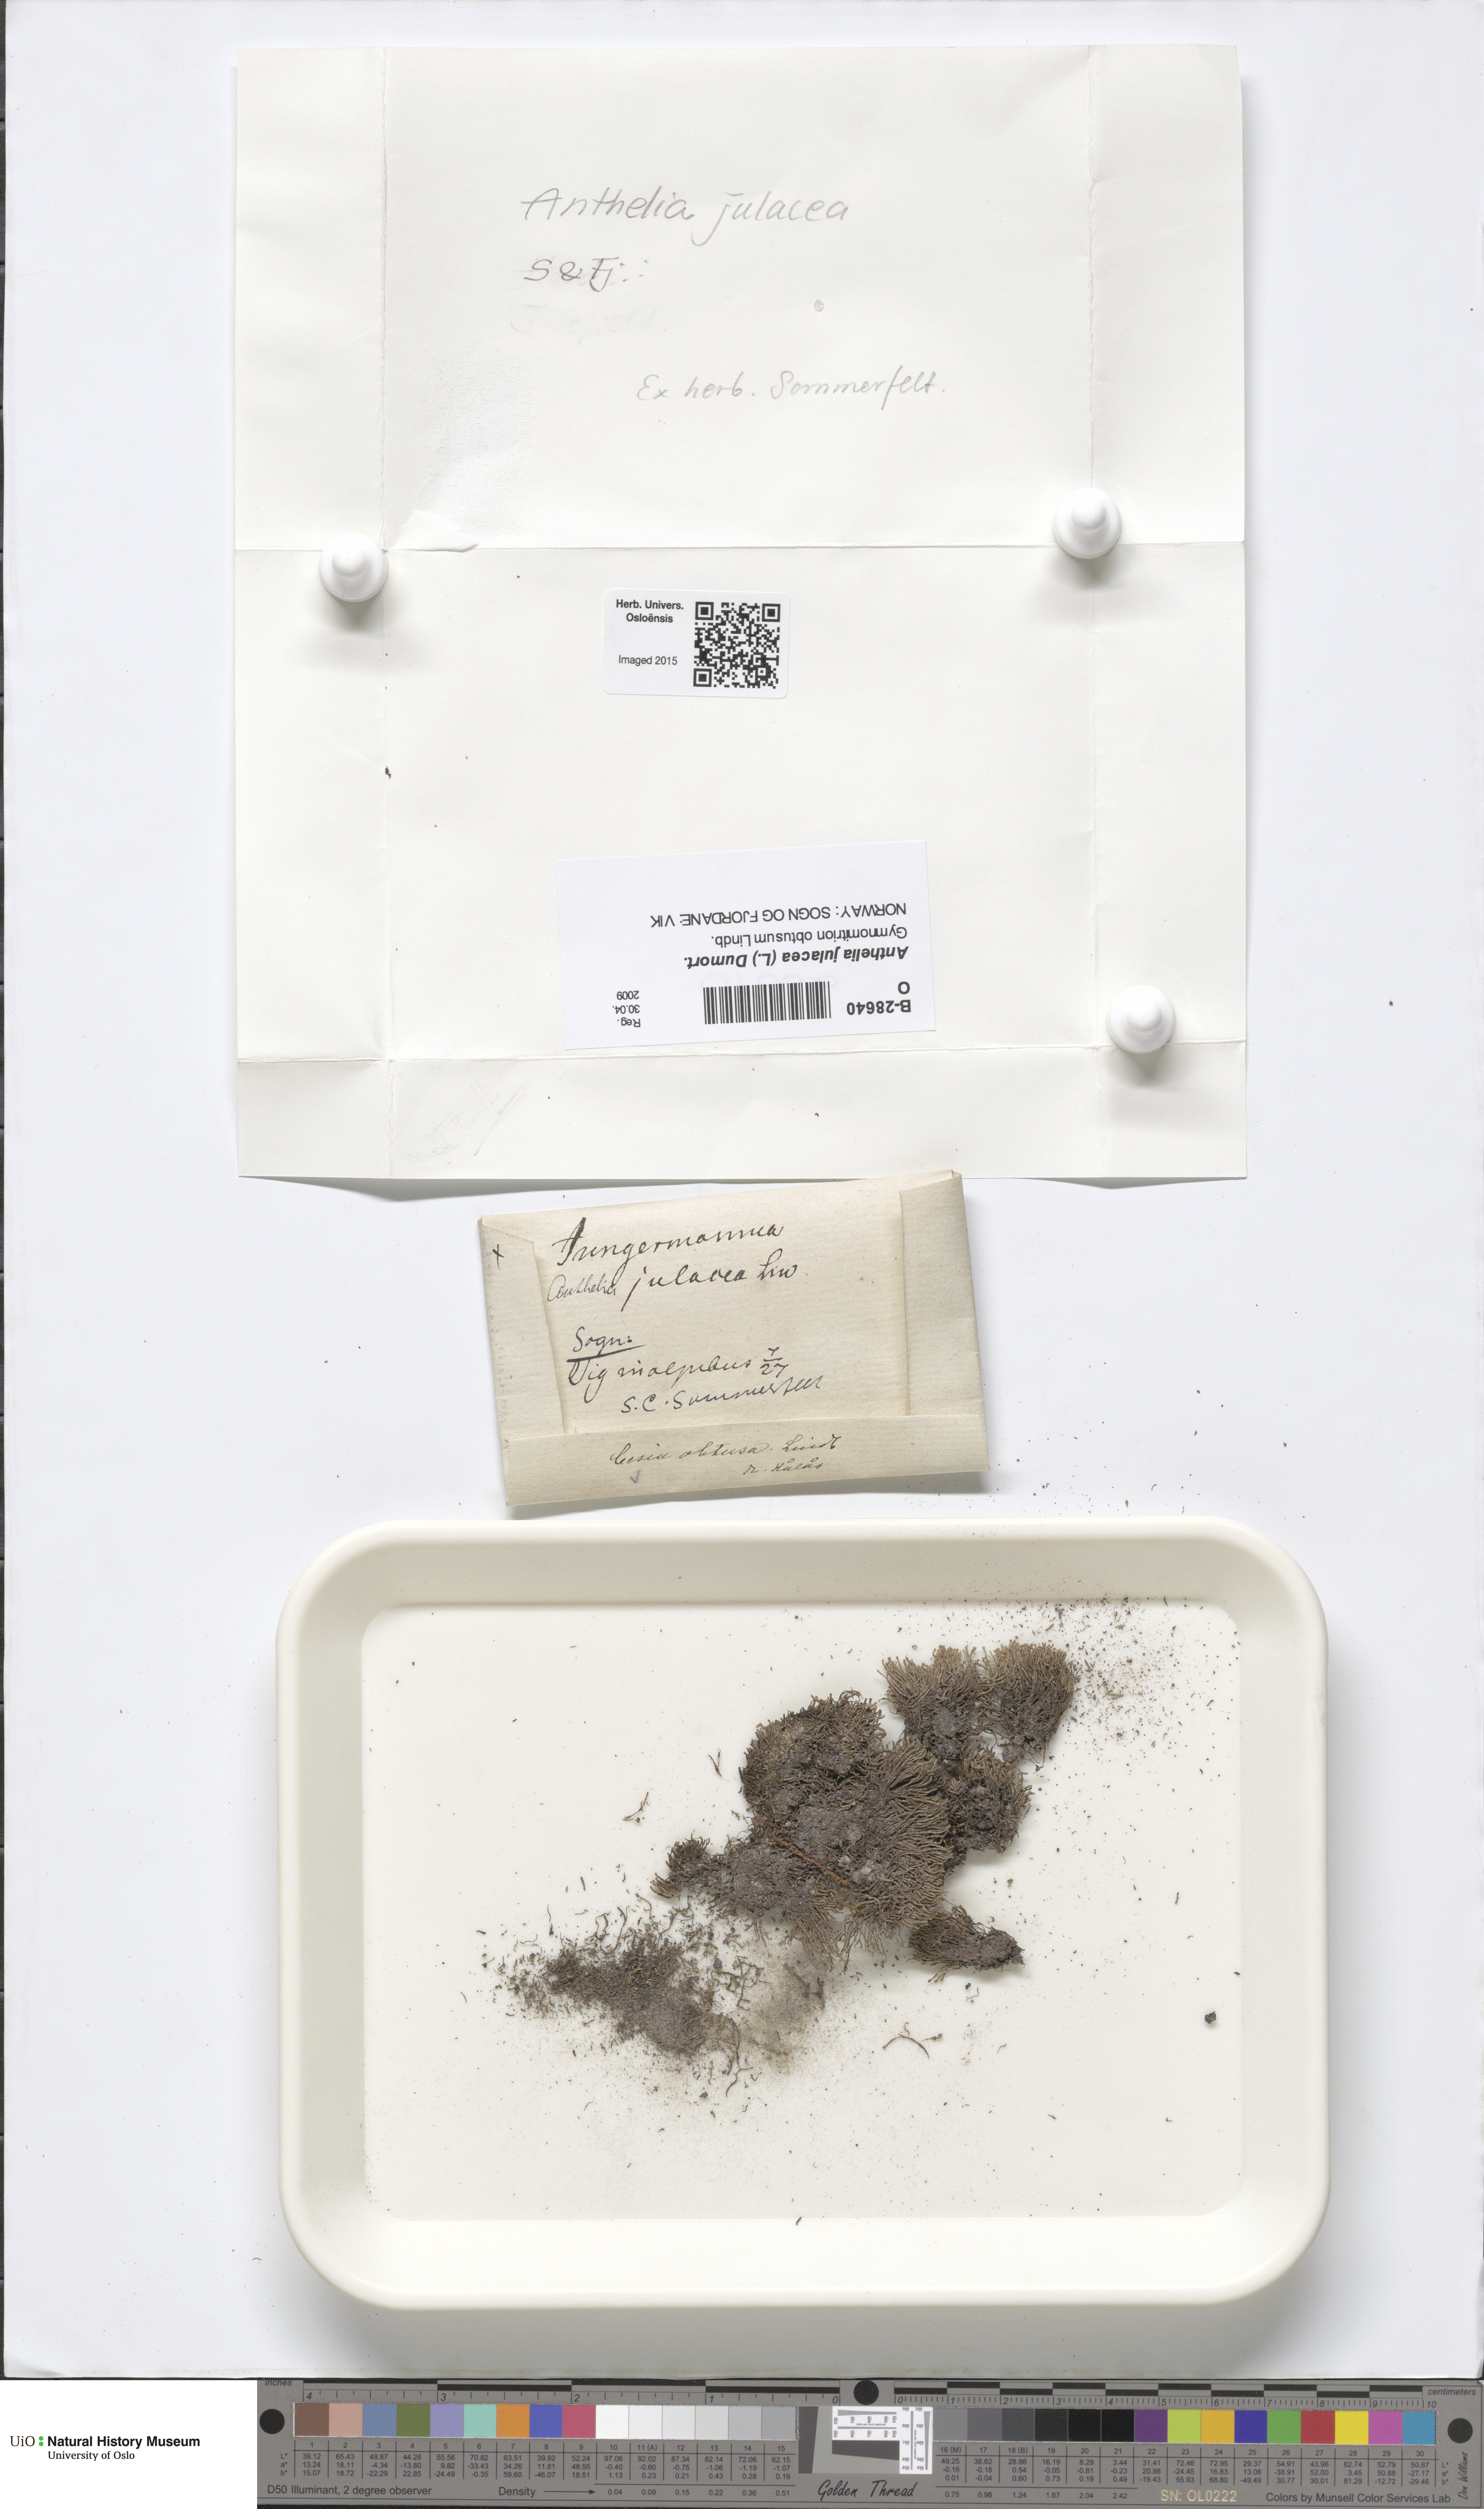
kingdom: Plantae
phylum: Marchantiophyta
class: Jungermanniopsida
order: Jungermanniales
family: Antheliaceae
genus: Anthelia
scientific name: Anthelia julacea
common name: Alpine silverwort
